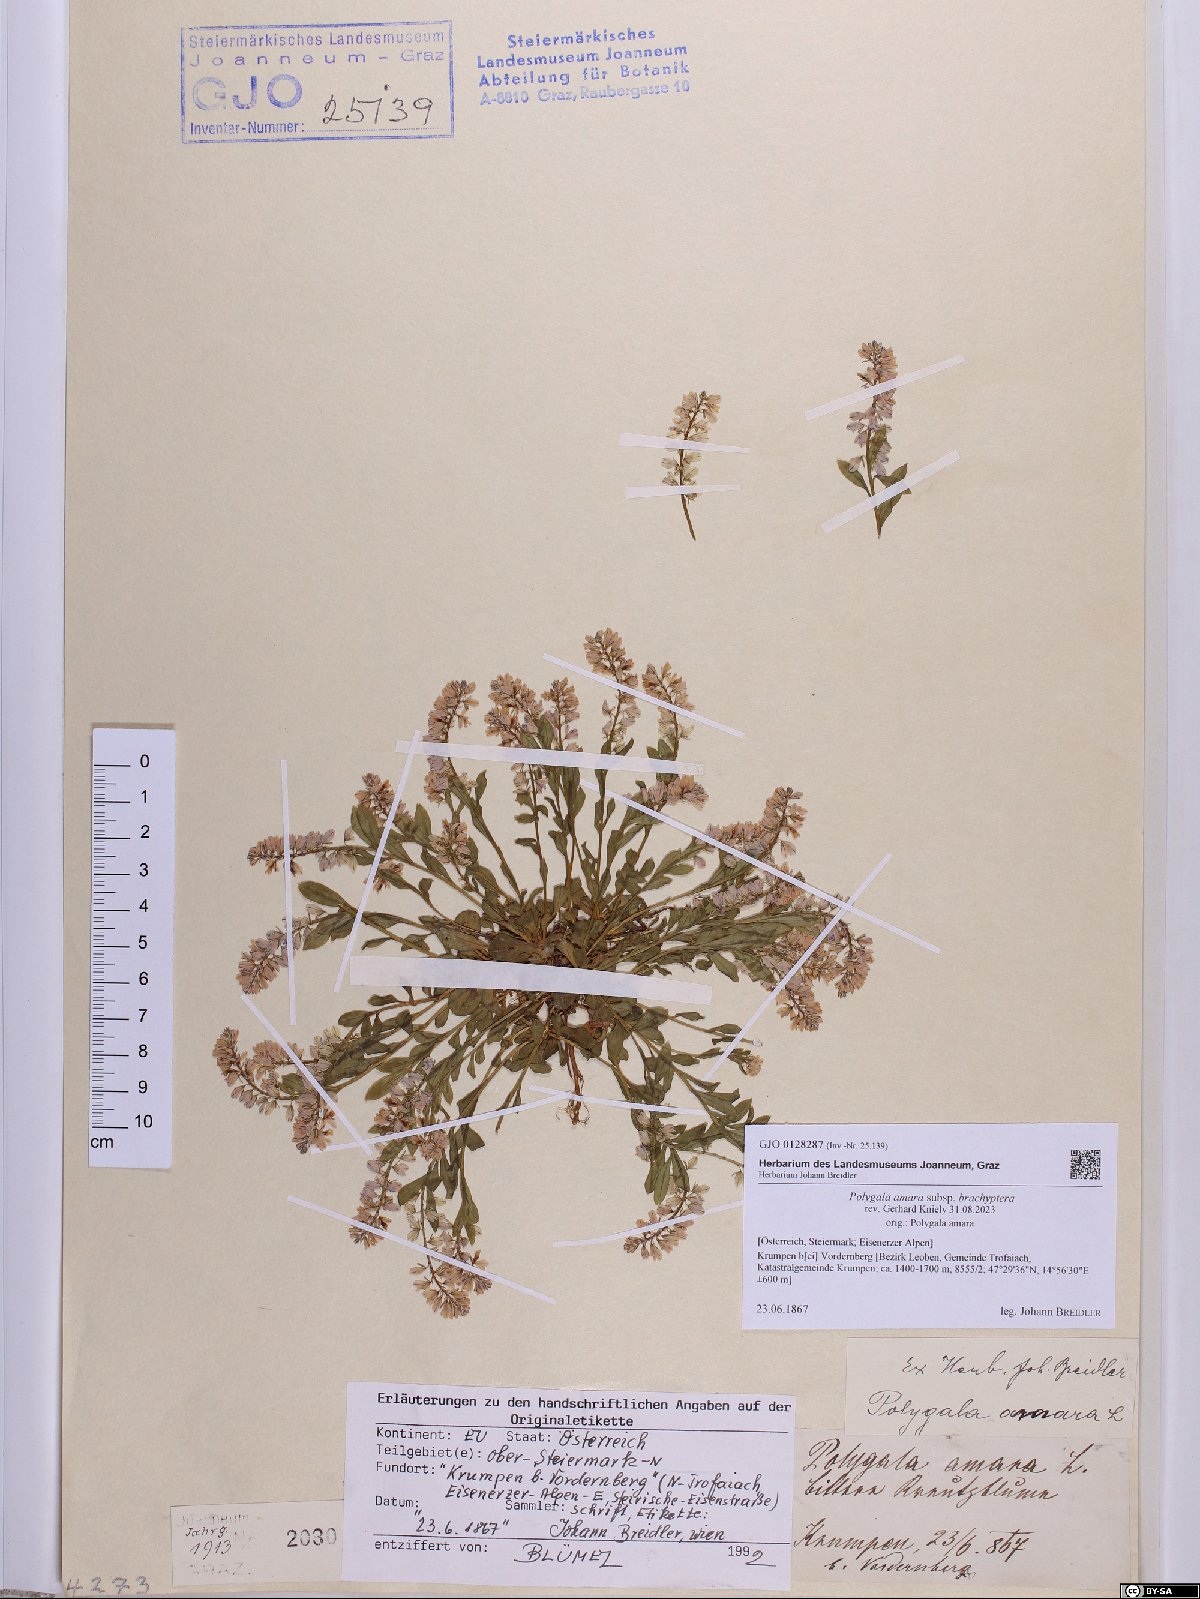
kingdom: Plantae
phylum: Tracheophyta
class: Magnoliopsida
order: Fabales
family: Polygalaceae
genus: Polygala
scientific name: Polygala amara
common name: Milkwort
